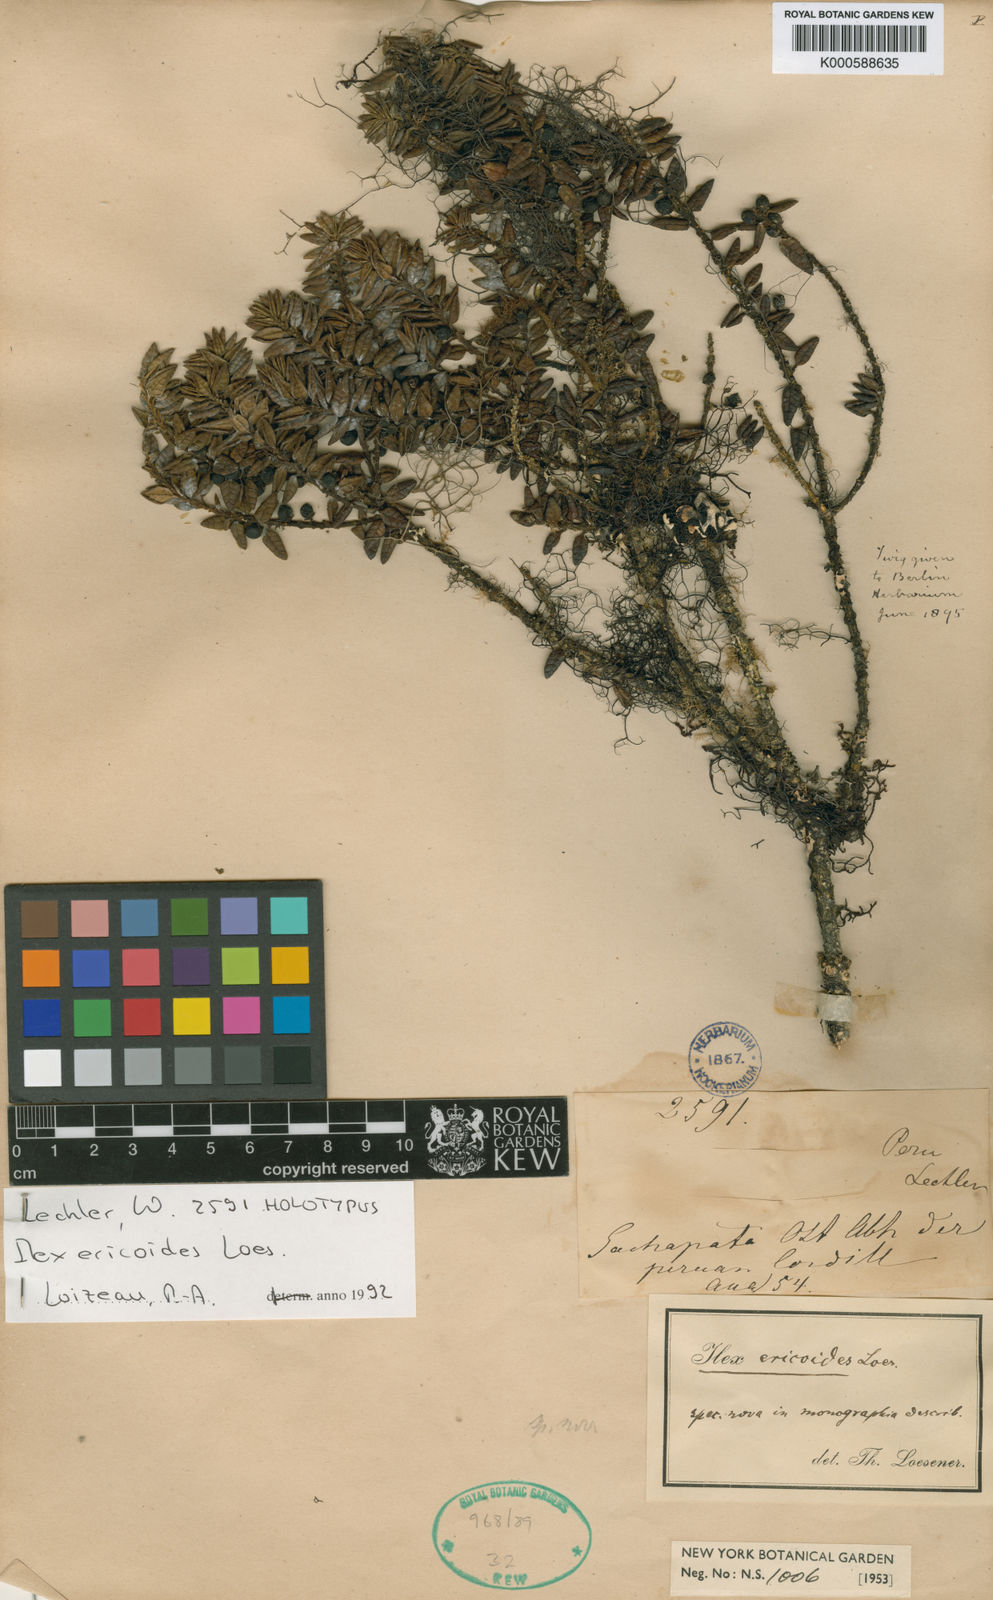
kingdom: Plantae
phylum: Tracheophyta
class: Magnoliopsida
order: Aquifoliales
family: Aquifoliaceae
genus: Ilex
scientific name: Ilex ericoides
